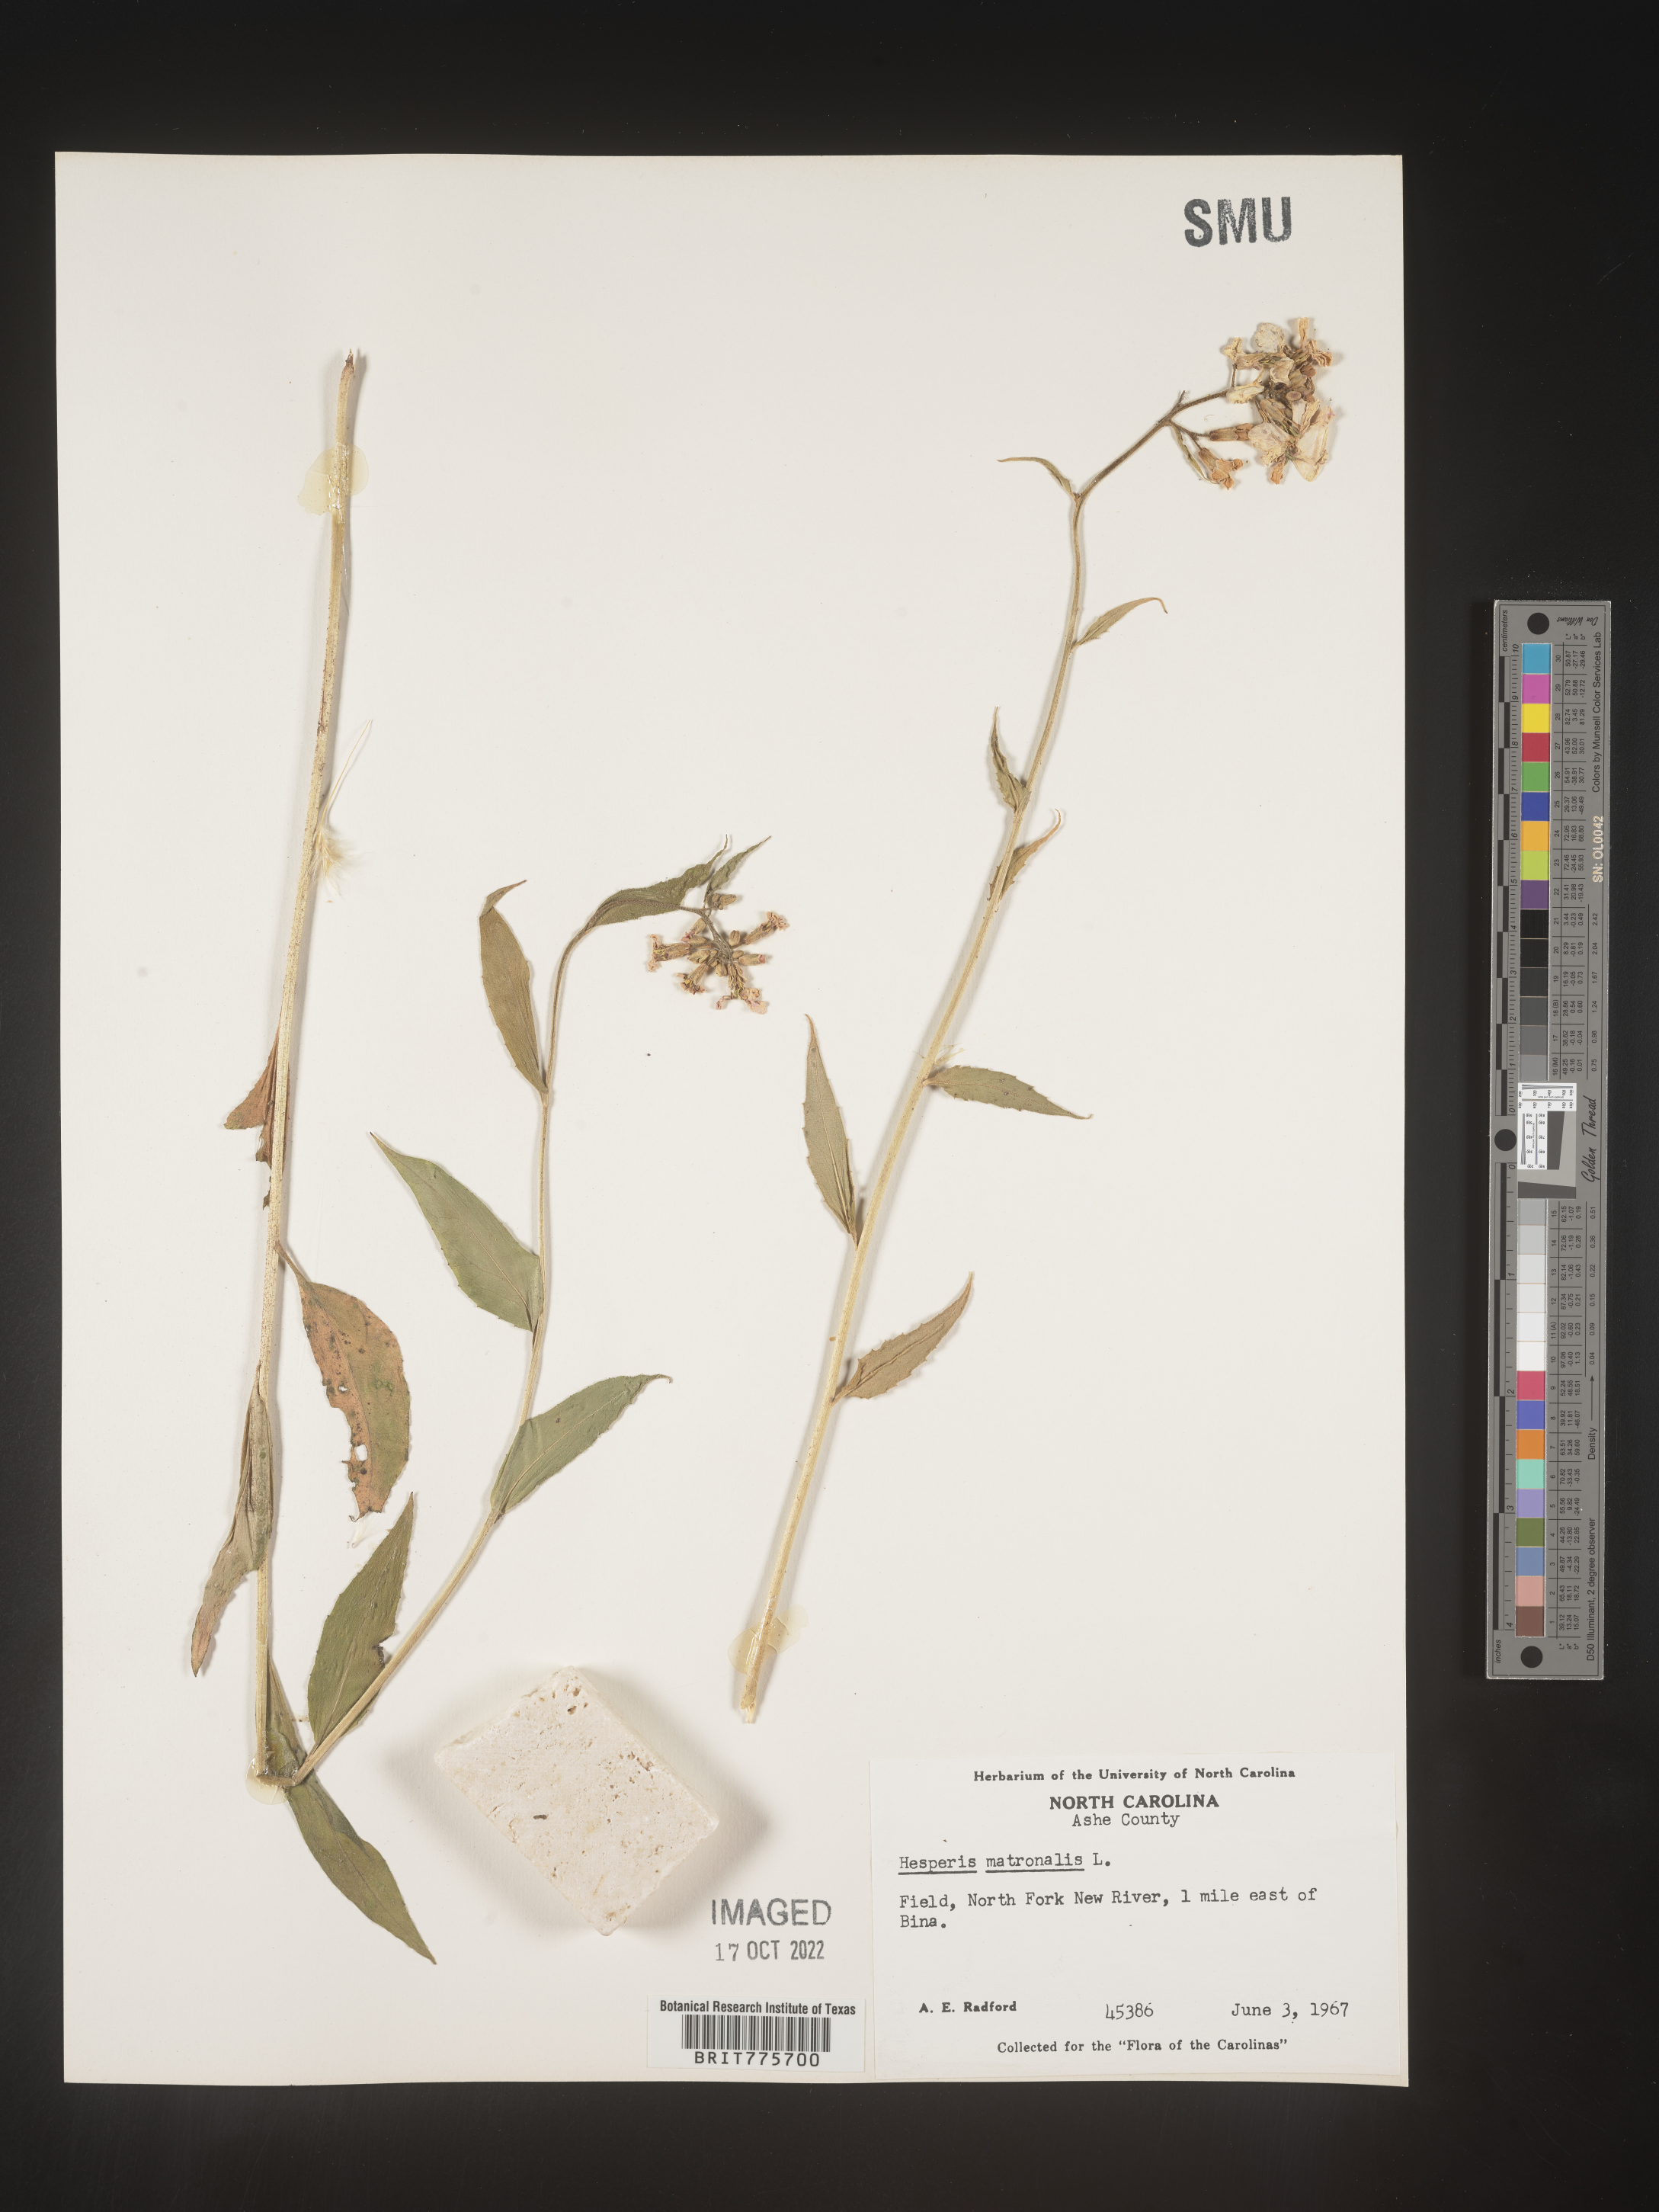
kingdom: Plantae
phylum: Tracheophyta
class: Magnoliopsida
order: Brassicales
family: Brassicaceae
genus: Hesperis
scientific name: Hesperis matronalis
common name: Dame's-violet
